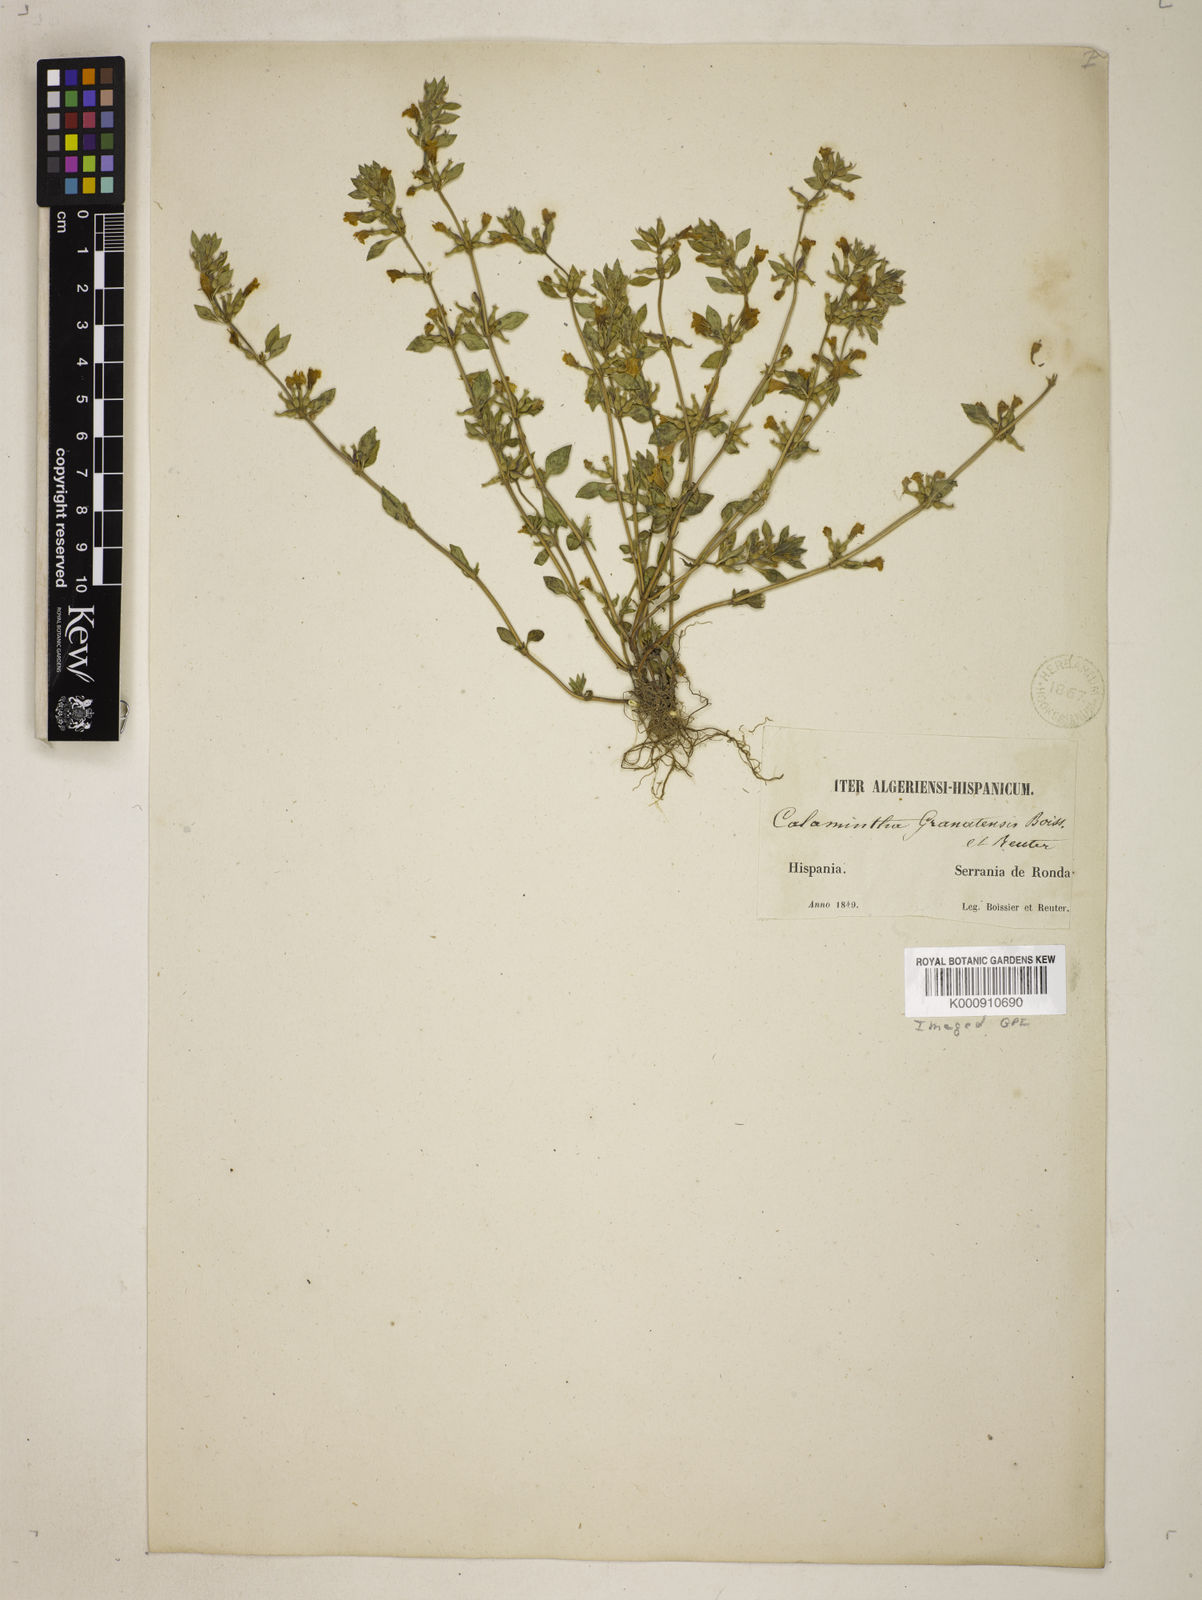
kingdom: Plantae
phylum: Tracheophyta
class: Magnoliopsida
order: Lamiales
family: Lamiaceae
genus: Clinopodium
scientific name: Clinopodium alpinum
